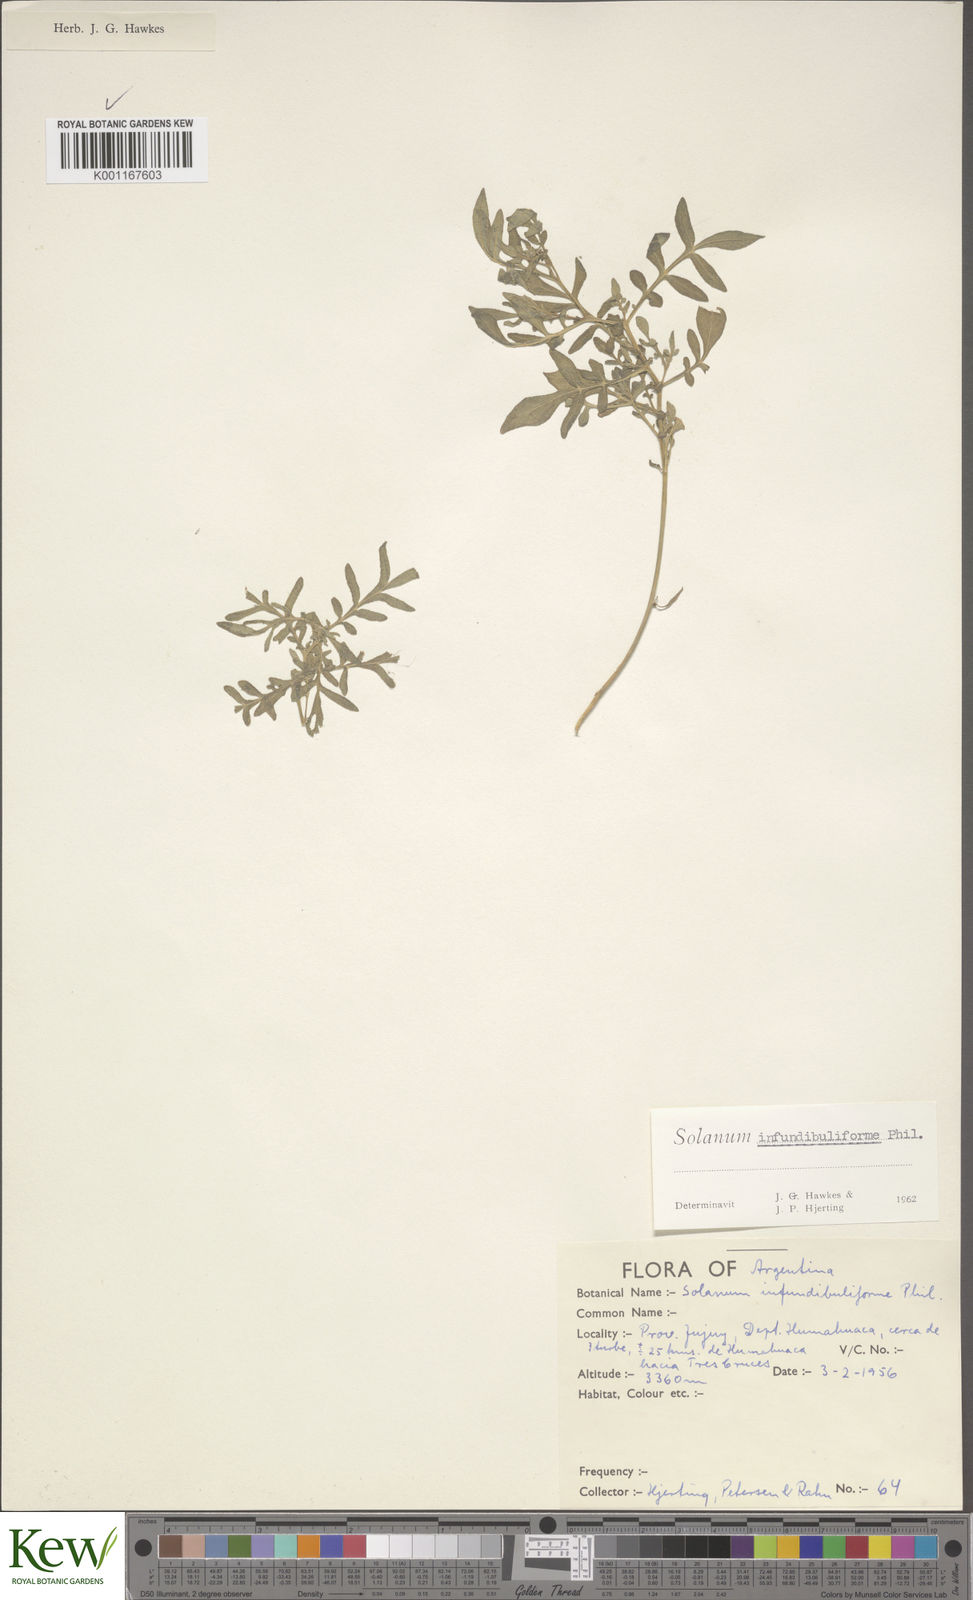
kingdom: Plantae
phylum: Tracheophyta
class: Magnoliopsida
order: Solanales
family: Solanaceae
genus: Solanum
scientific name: Solanum infundibuliforme
